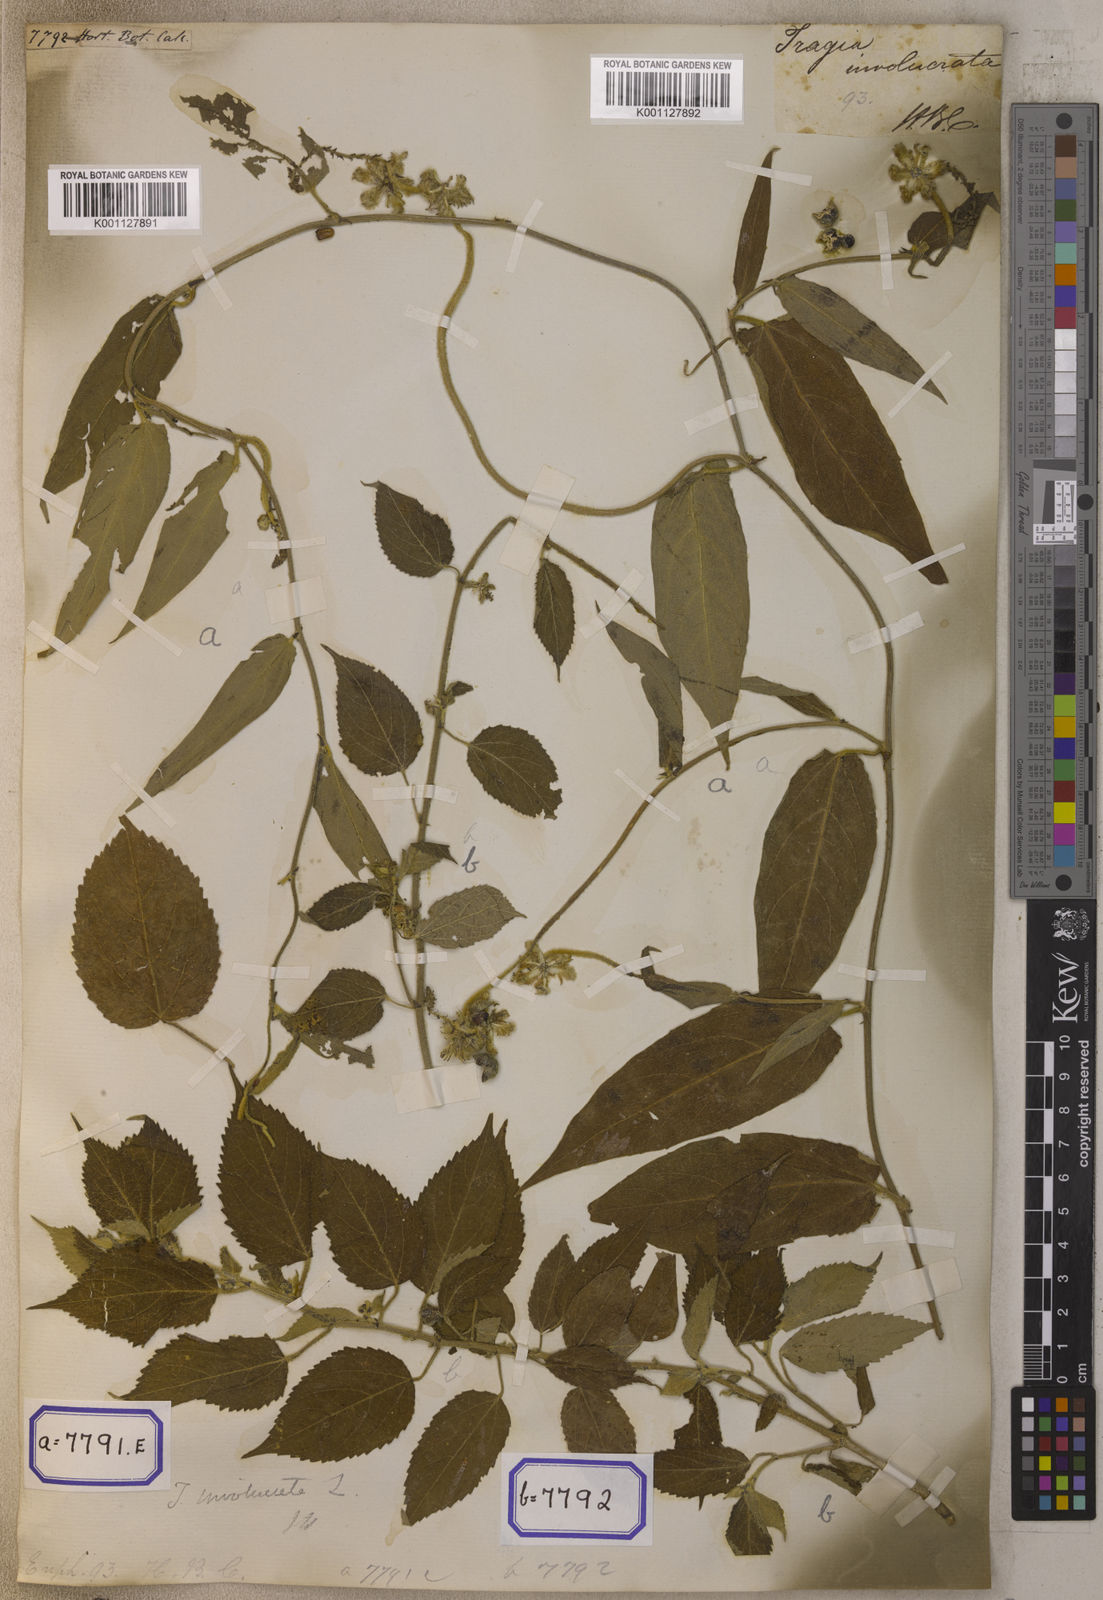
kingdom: Plantae
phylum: Tracheophyta
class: Magnoliopsida
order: Malpighiales
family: Euphorbiaceae
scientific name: Euphorbiaceae
